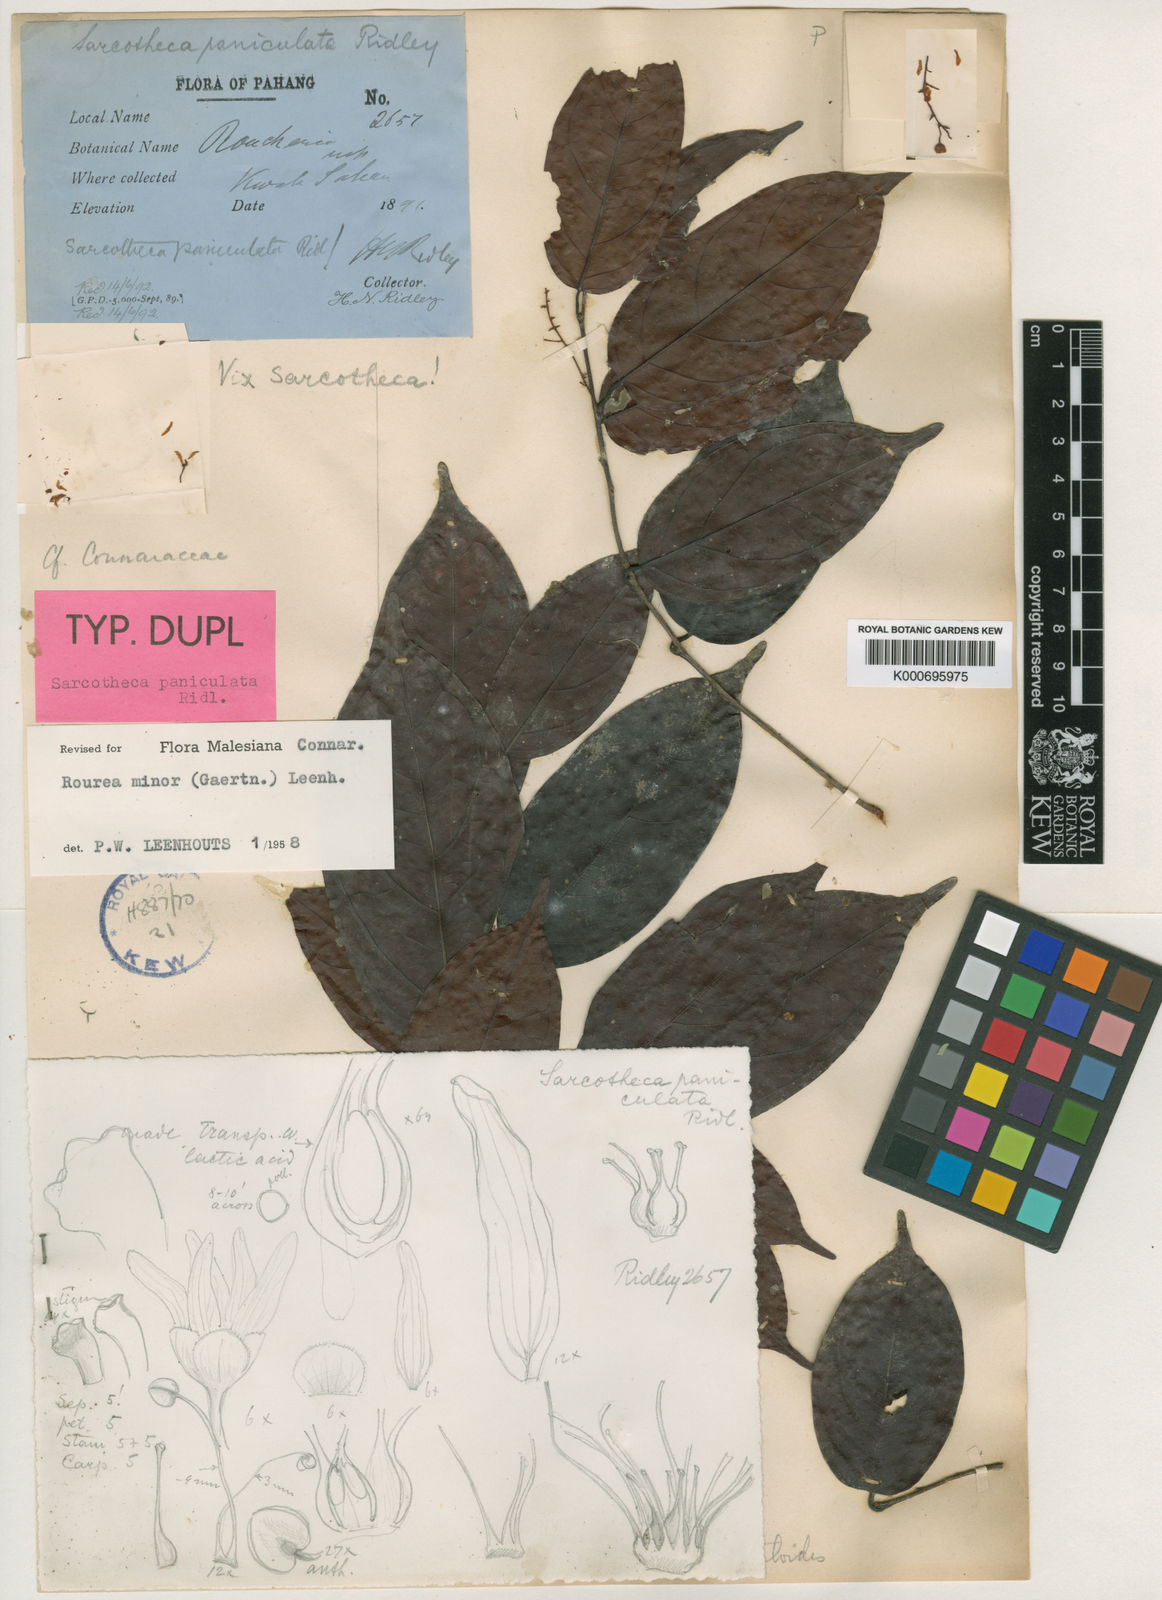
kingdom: Plantae
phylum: Tracheophyta
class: Magnoliopsida
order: Oxalidales
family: Connaraceae
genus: Rourea
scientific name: Rourea
